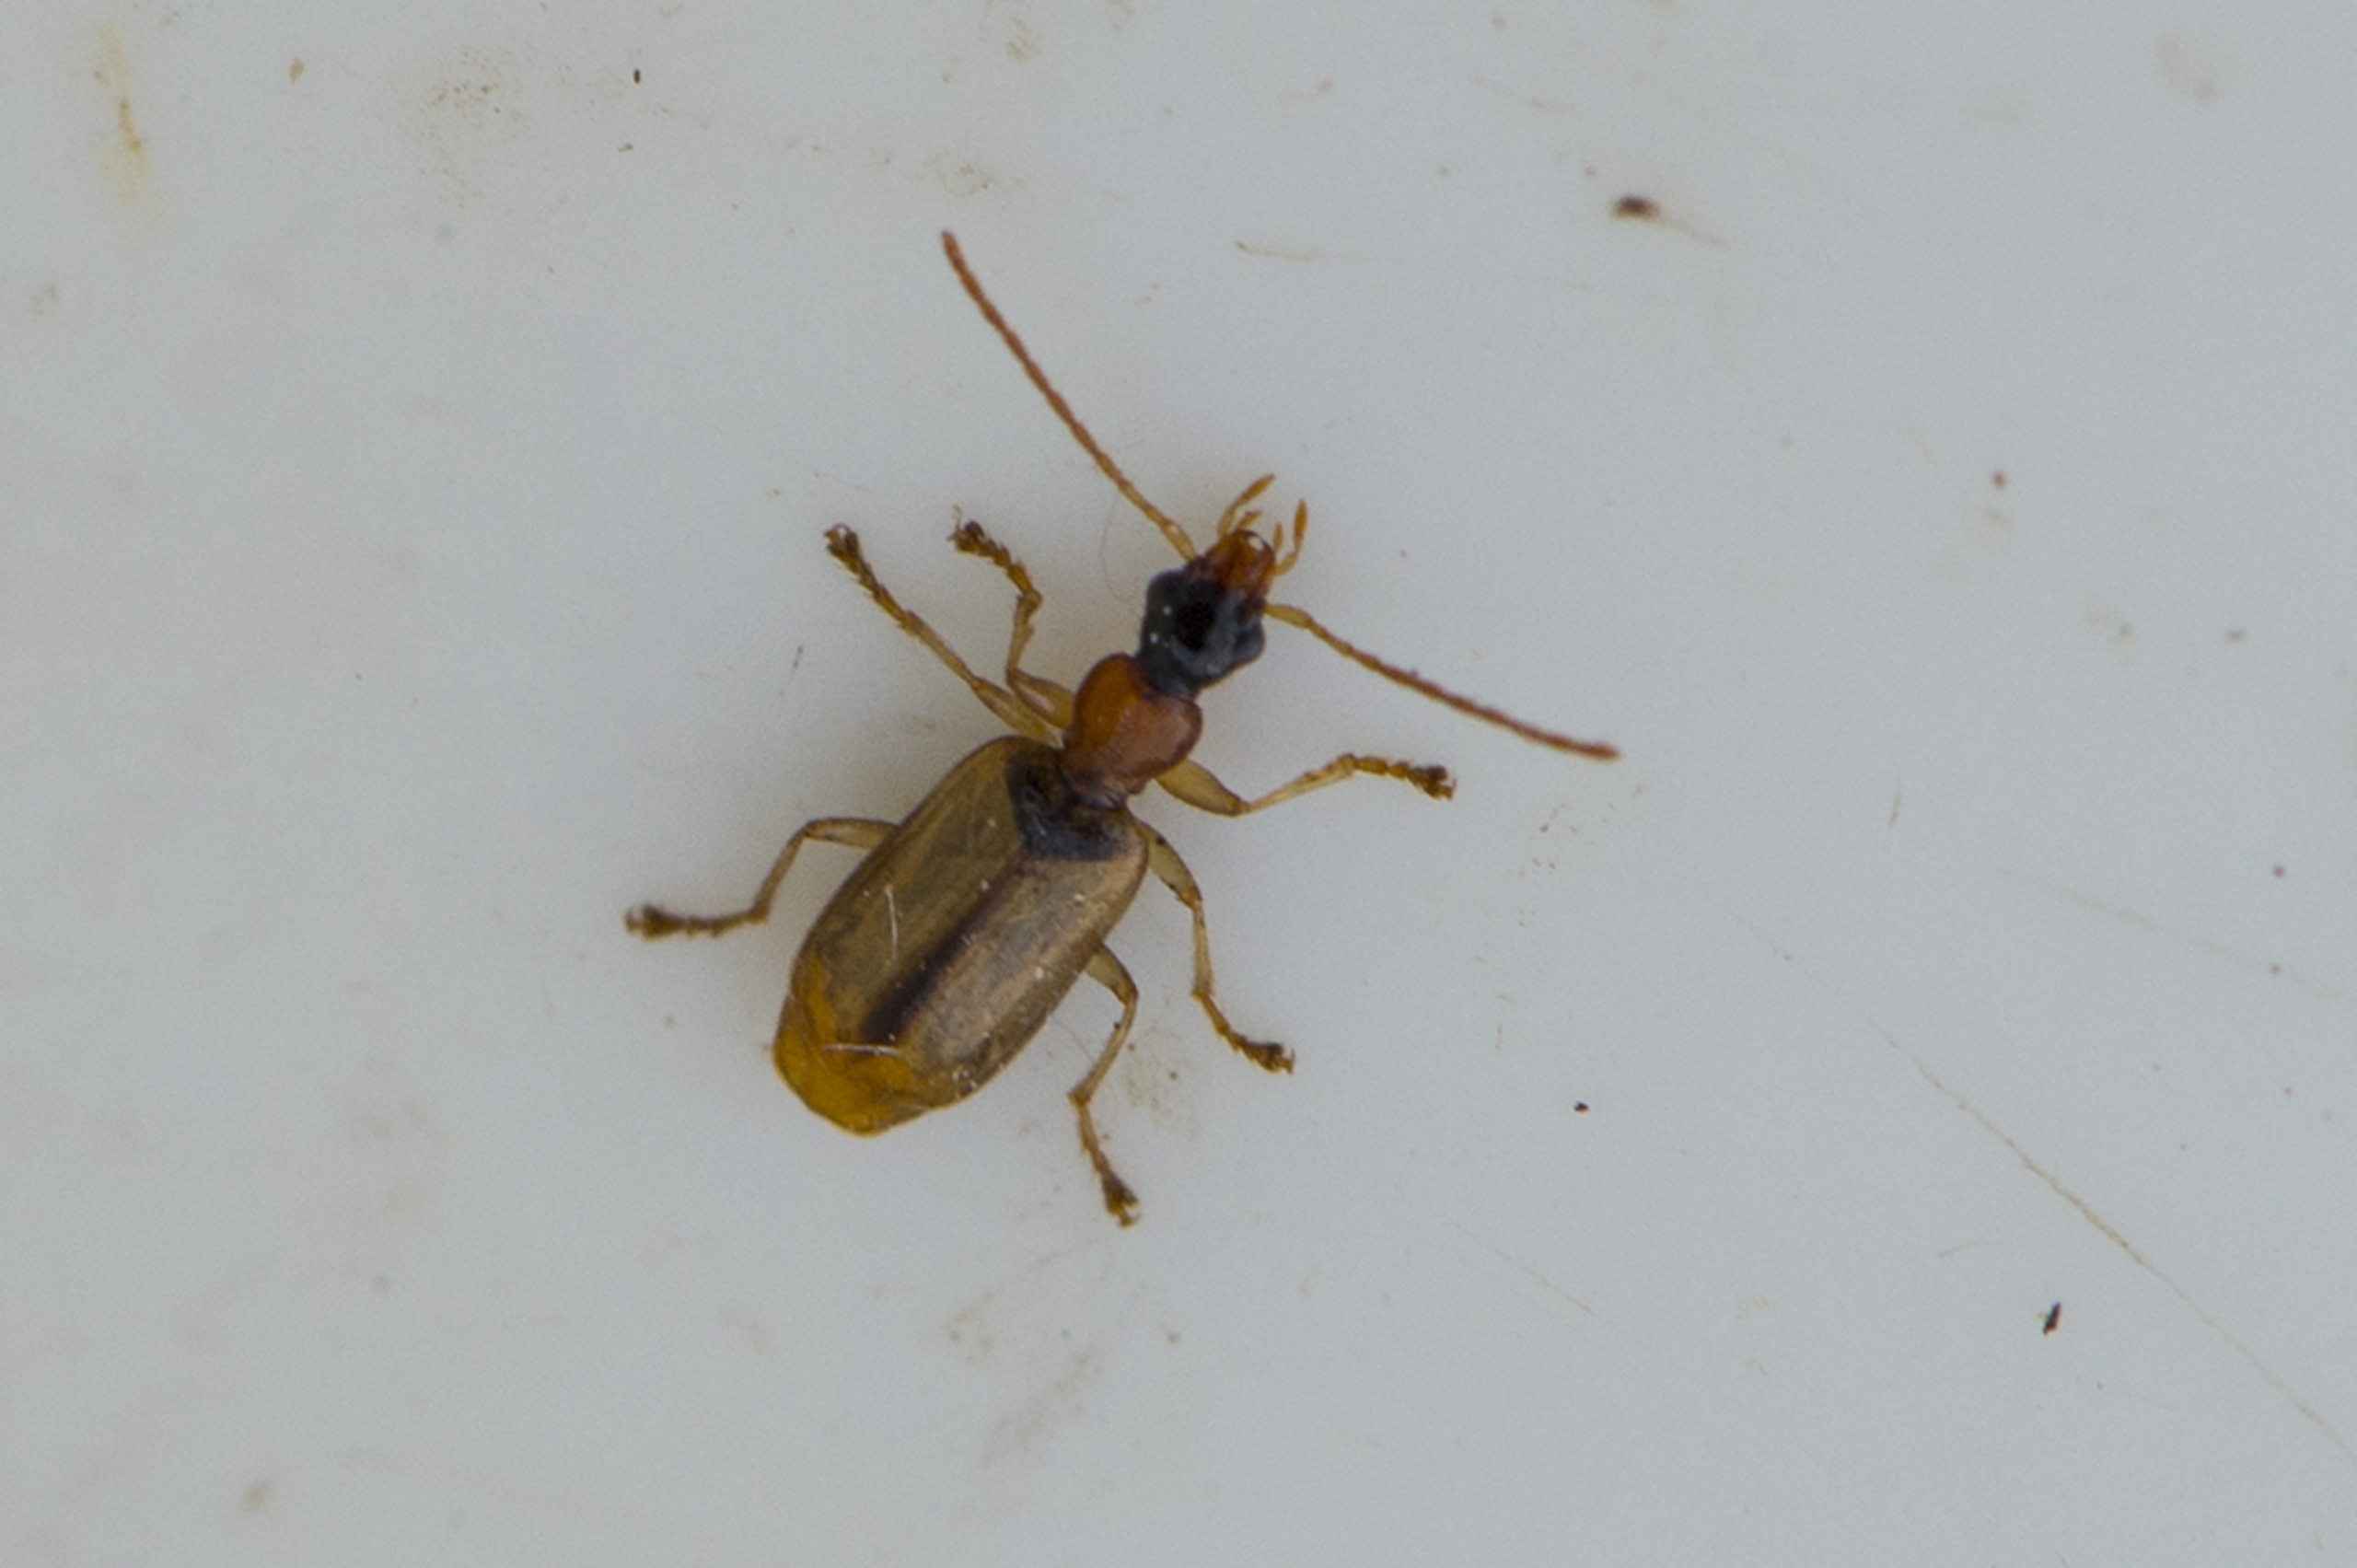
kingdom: Animalia
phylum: Arthropoda
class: Insecta
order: Coleoptera
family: Carabidae
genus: Demetrias
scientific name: Demetrias atricapillus
